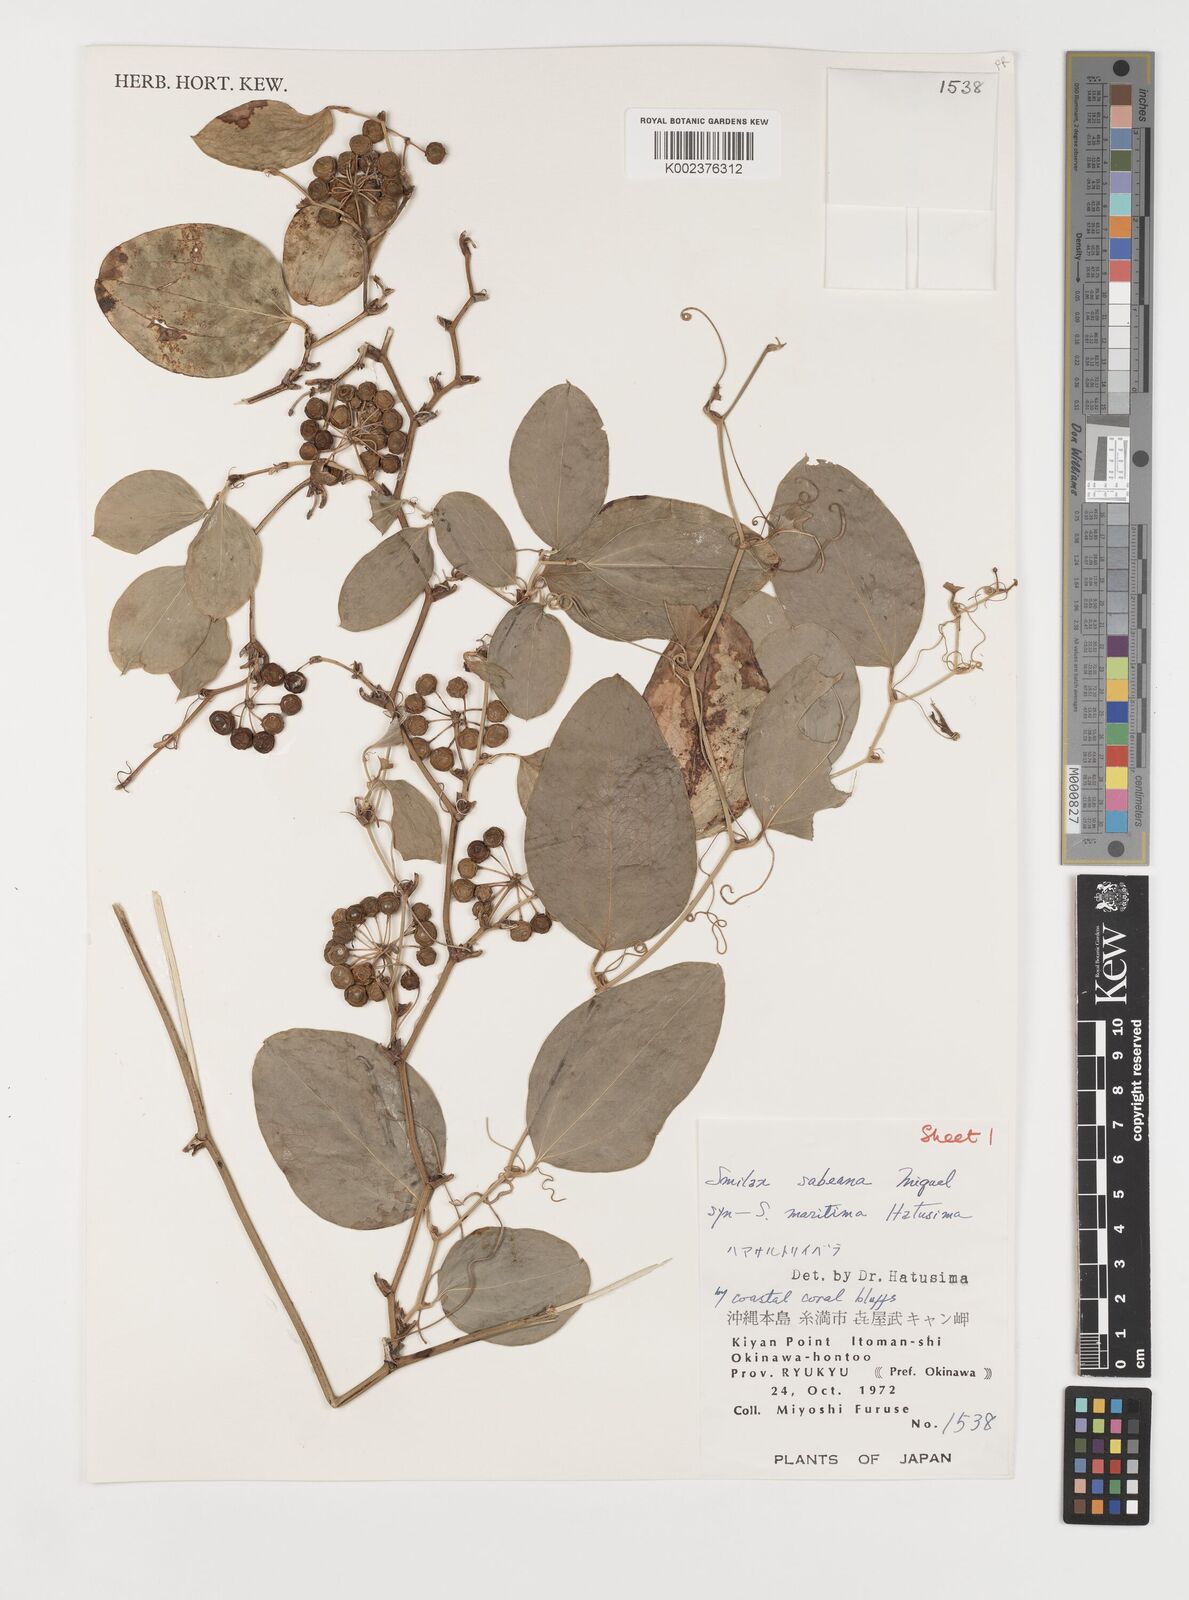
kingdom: Plantae
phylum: Tracheophyta
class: Liliopsida
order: Liliales
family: Smilacaceae
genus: Smilax
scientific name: Smilax sebeana
